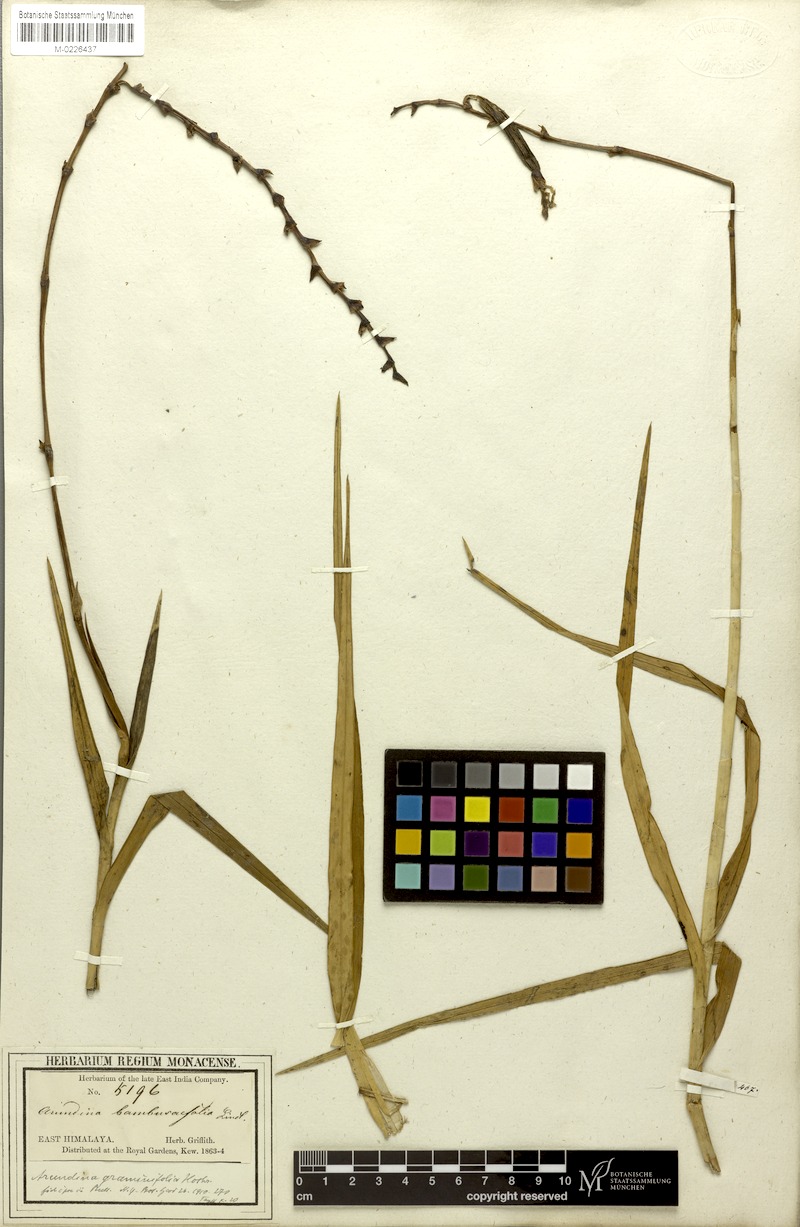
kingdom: Plantae
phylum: Tracheophyta
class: Liliopsida
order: Asparagales
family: Orchidaceae
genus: Arundina
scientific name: Arundina graminifolia
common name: Bamboo orchid
